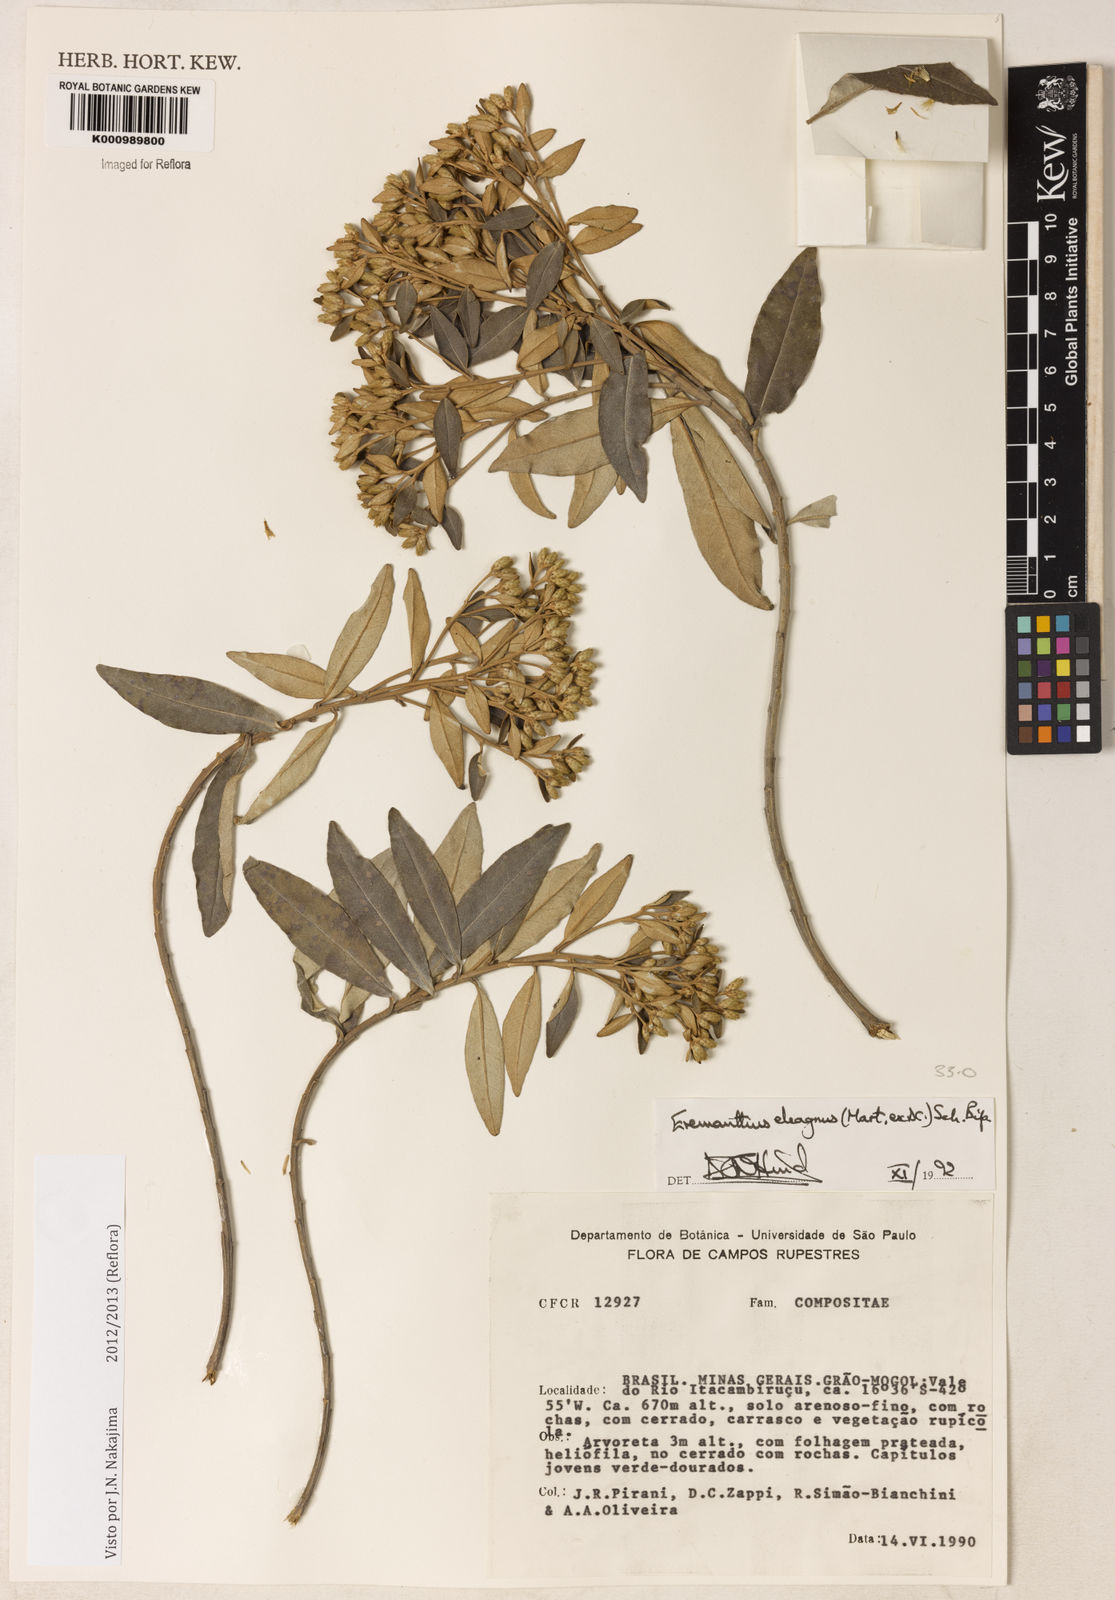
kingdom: Plantae
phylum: Tracheophyta
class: Magnoliopsida
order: Asterales
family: Asteraceae
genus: Eremanthus
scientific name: Eremanthus elaeagnus
